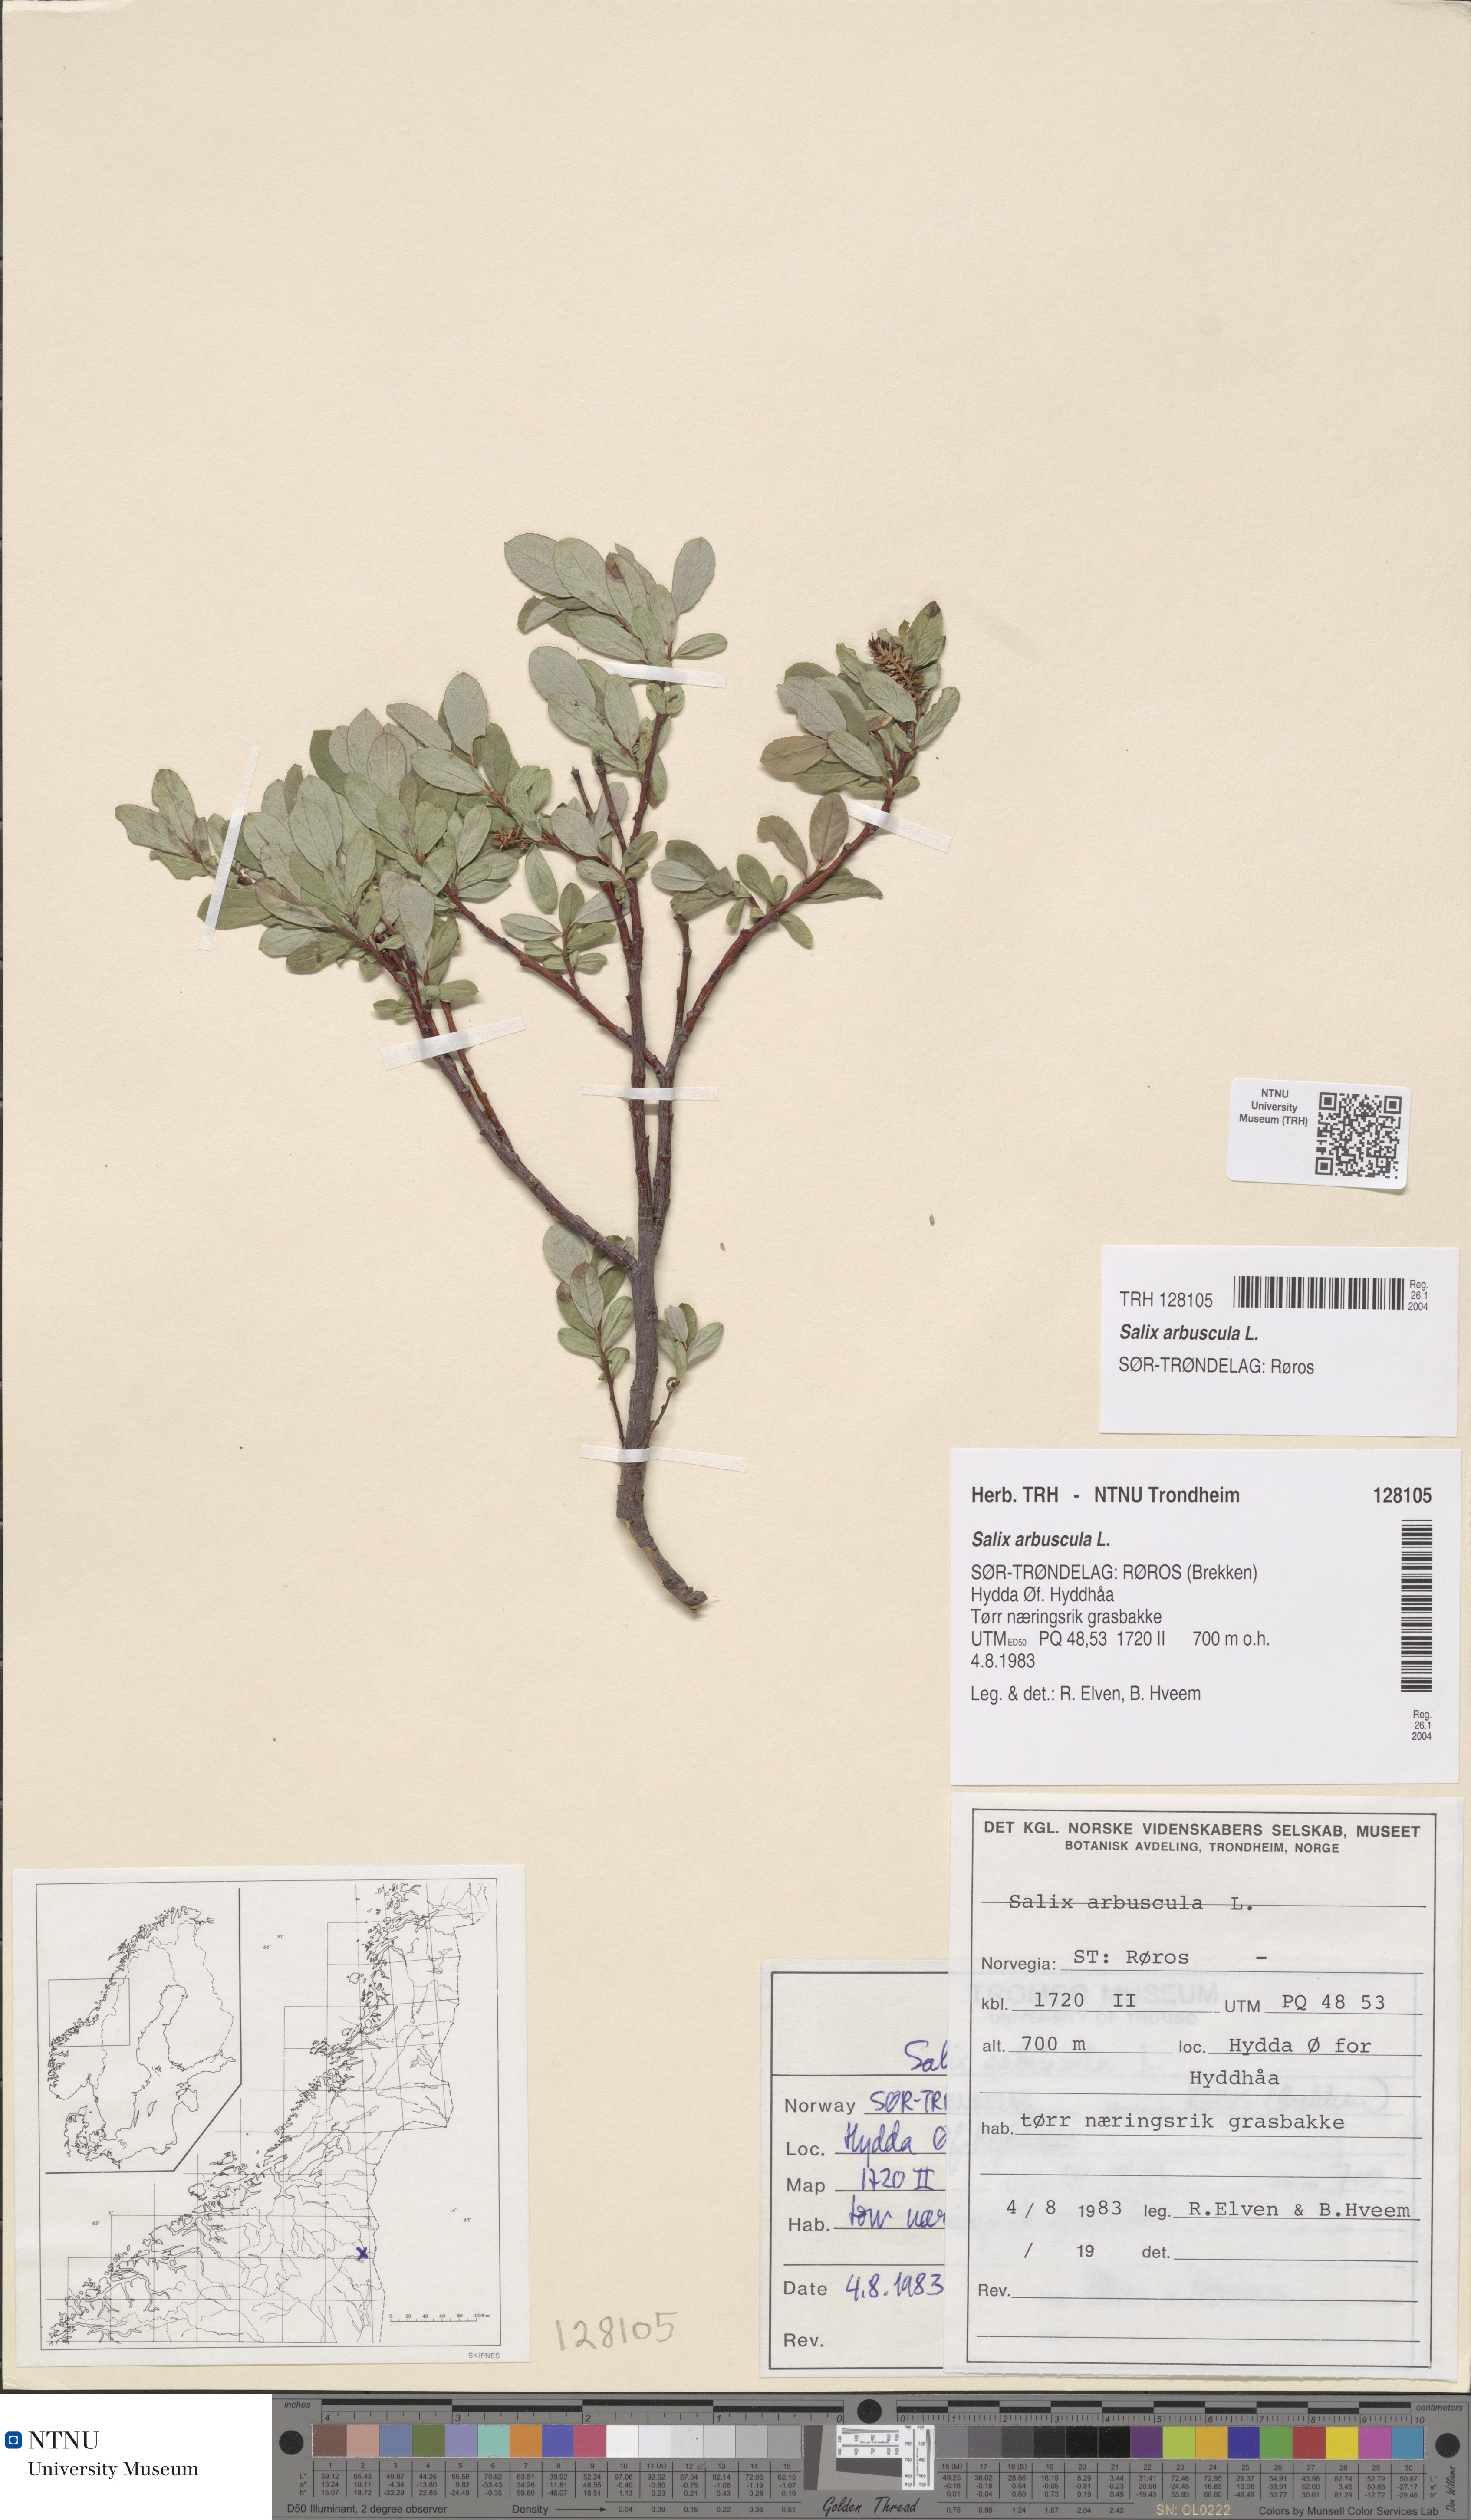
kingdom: Plantae
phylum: Tracheophyta
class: Magnoliopsida
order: Malpighiales
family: Salicaceae
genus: Salix
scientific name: Salix arbuscula
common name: Mountain willow
